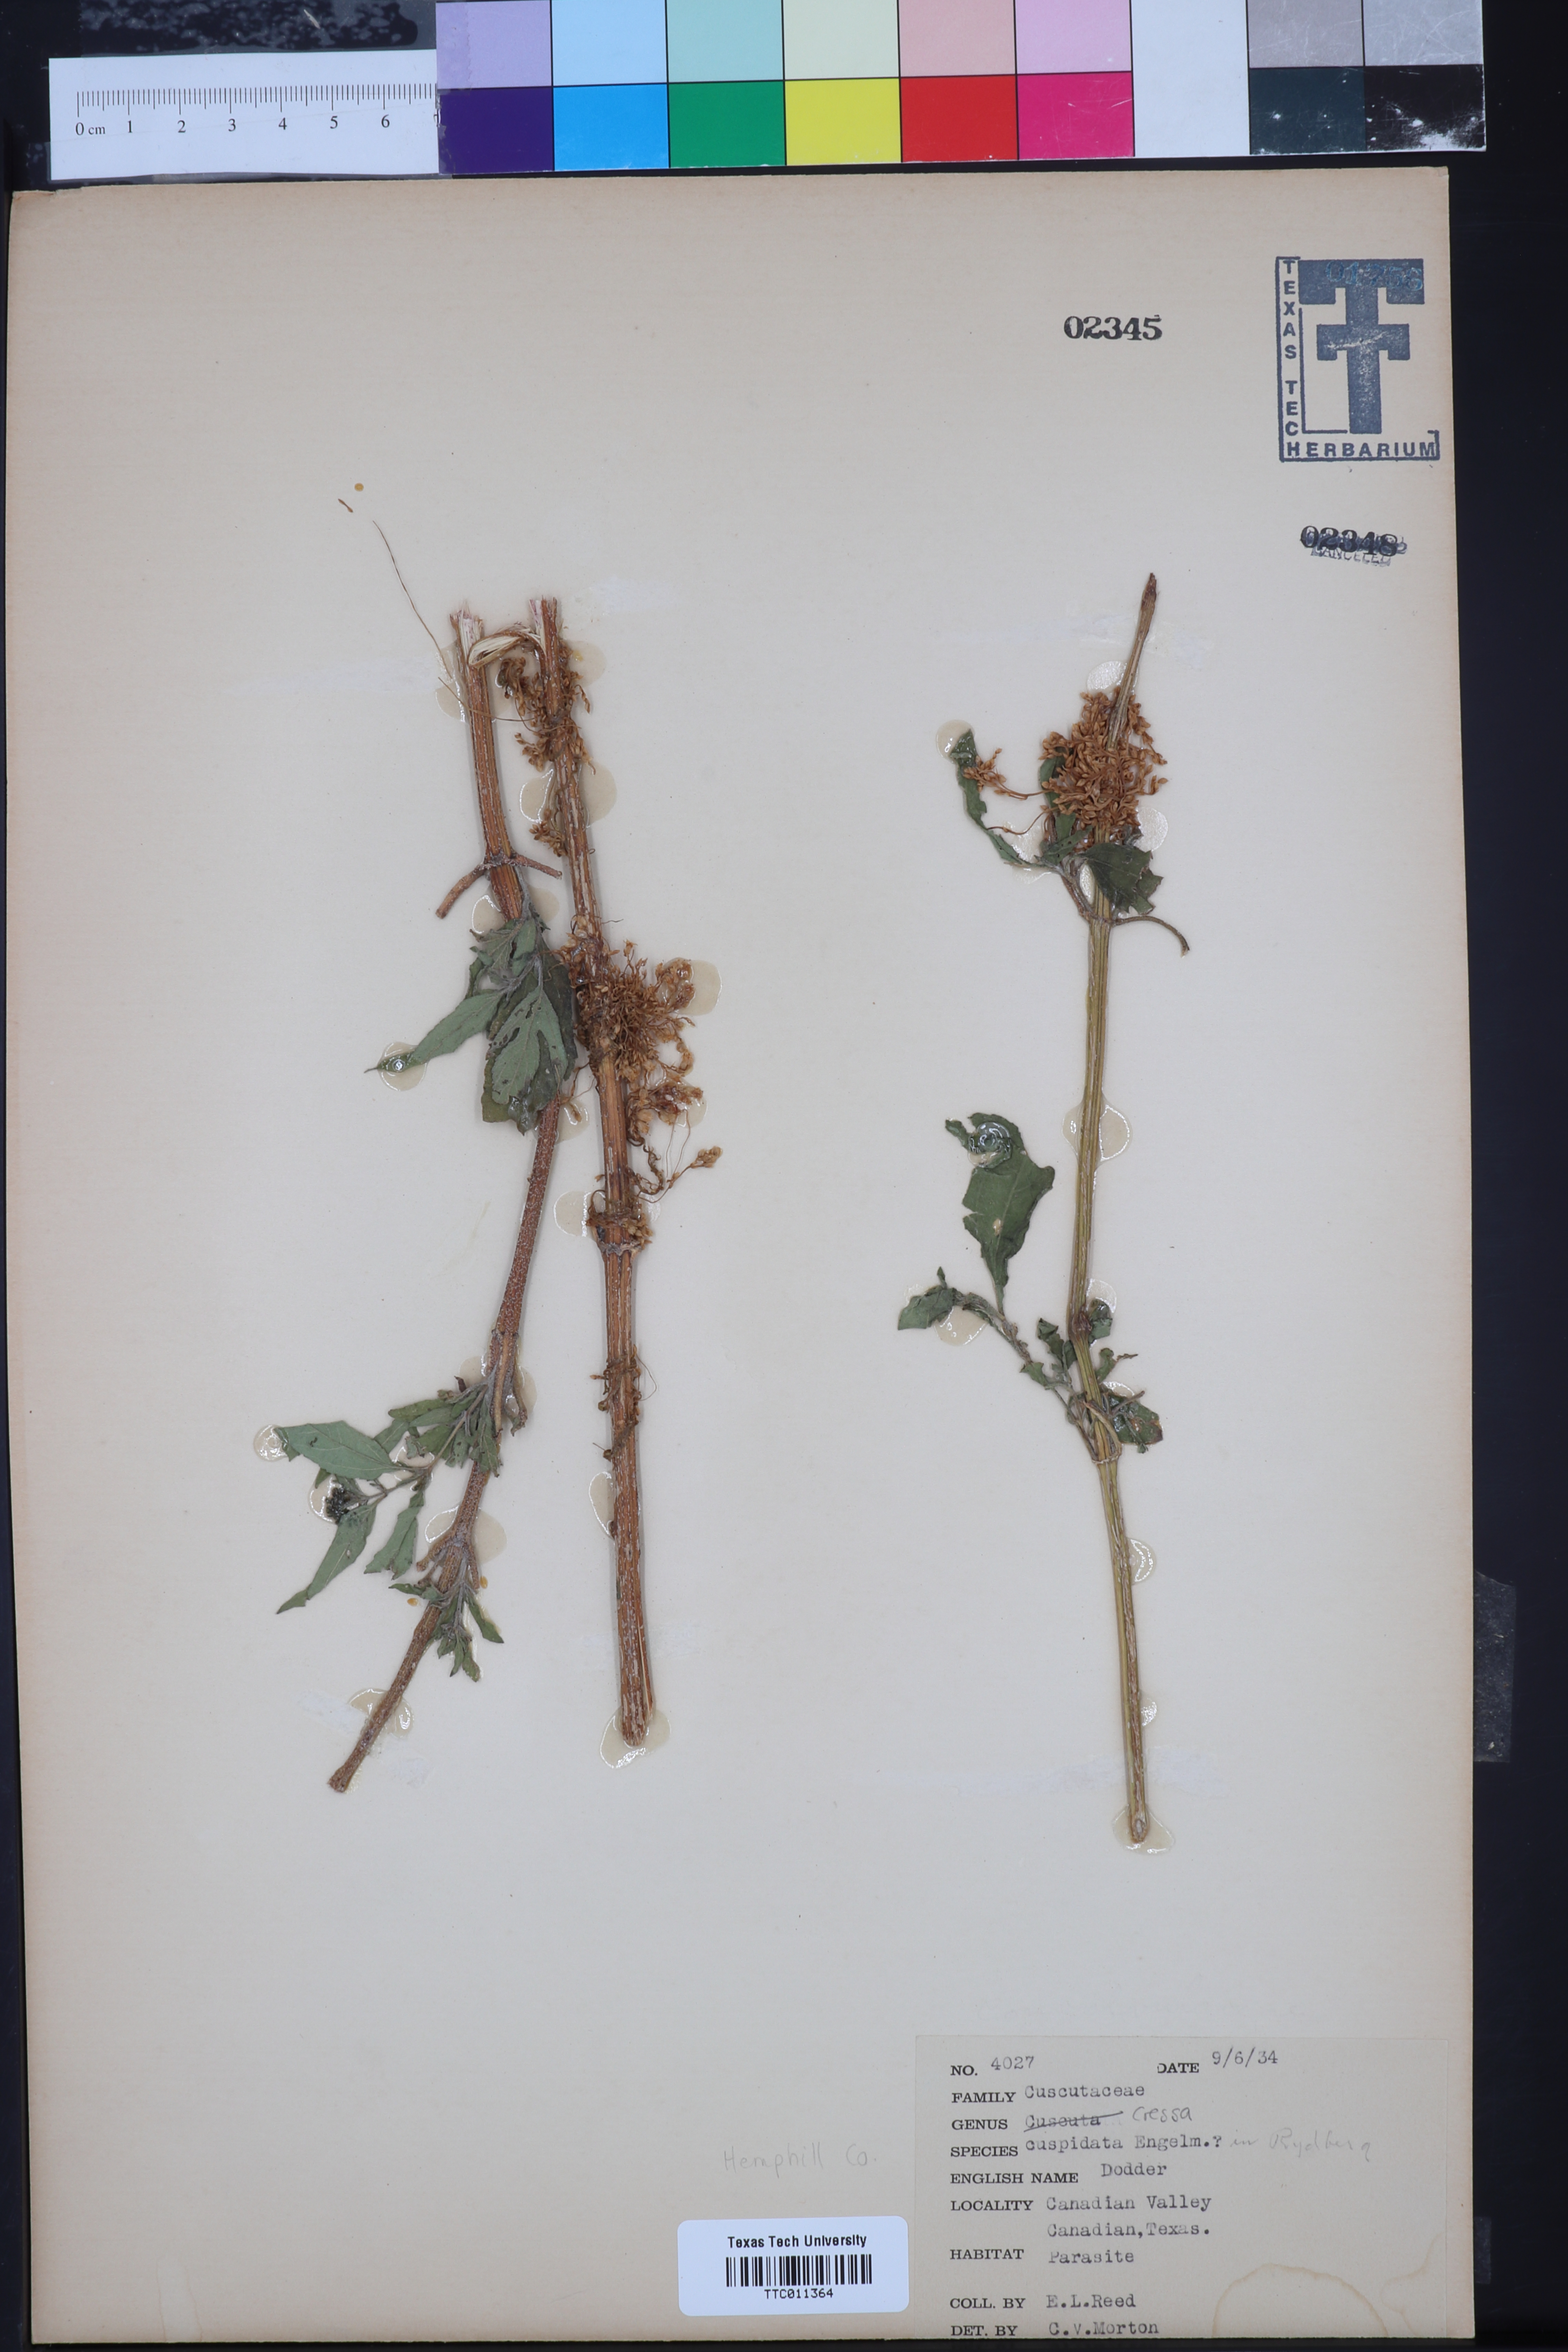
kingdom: Plantae
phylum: Tracheophyta
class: Magnoliopsida
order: Solanales
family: Convolvulaceae
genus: Cressa
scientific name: Cressa
